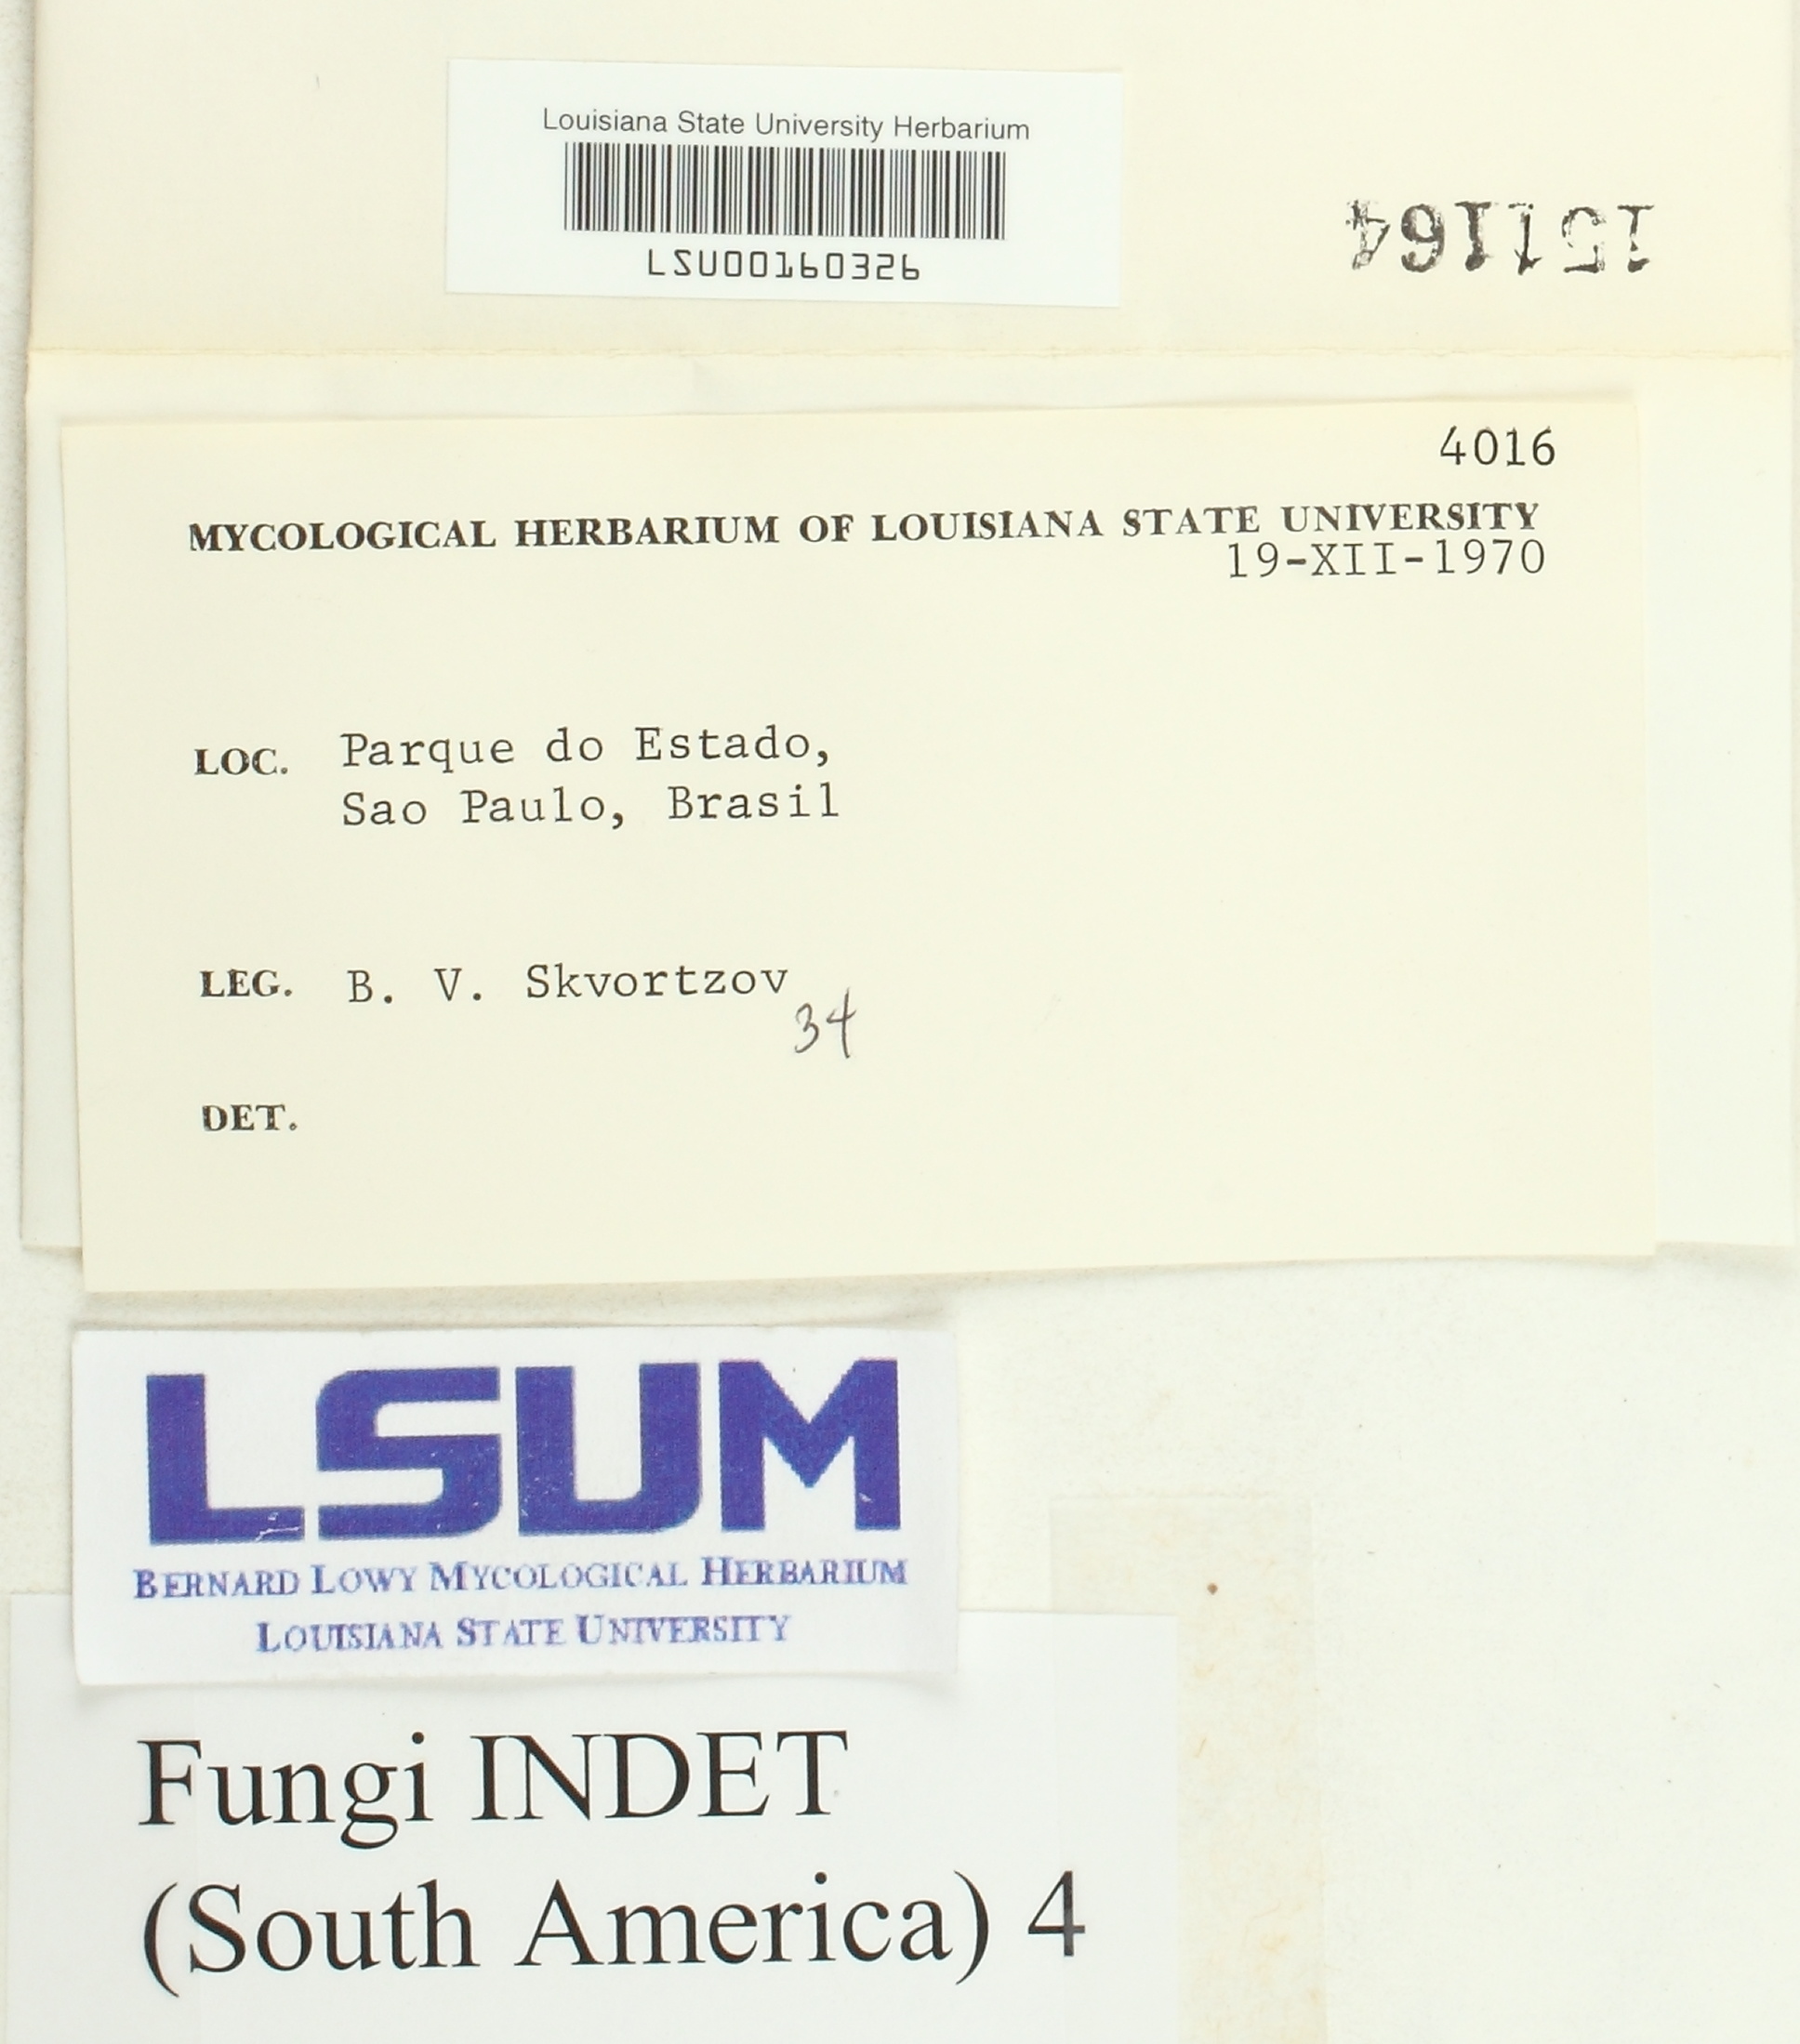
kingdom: Fungi
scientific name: Fungi
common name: Fungi
